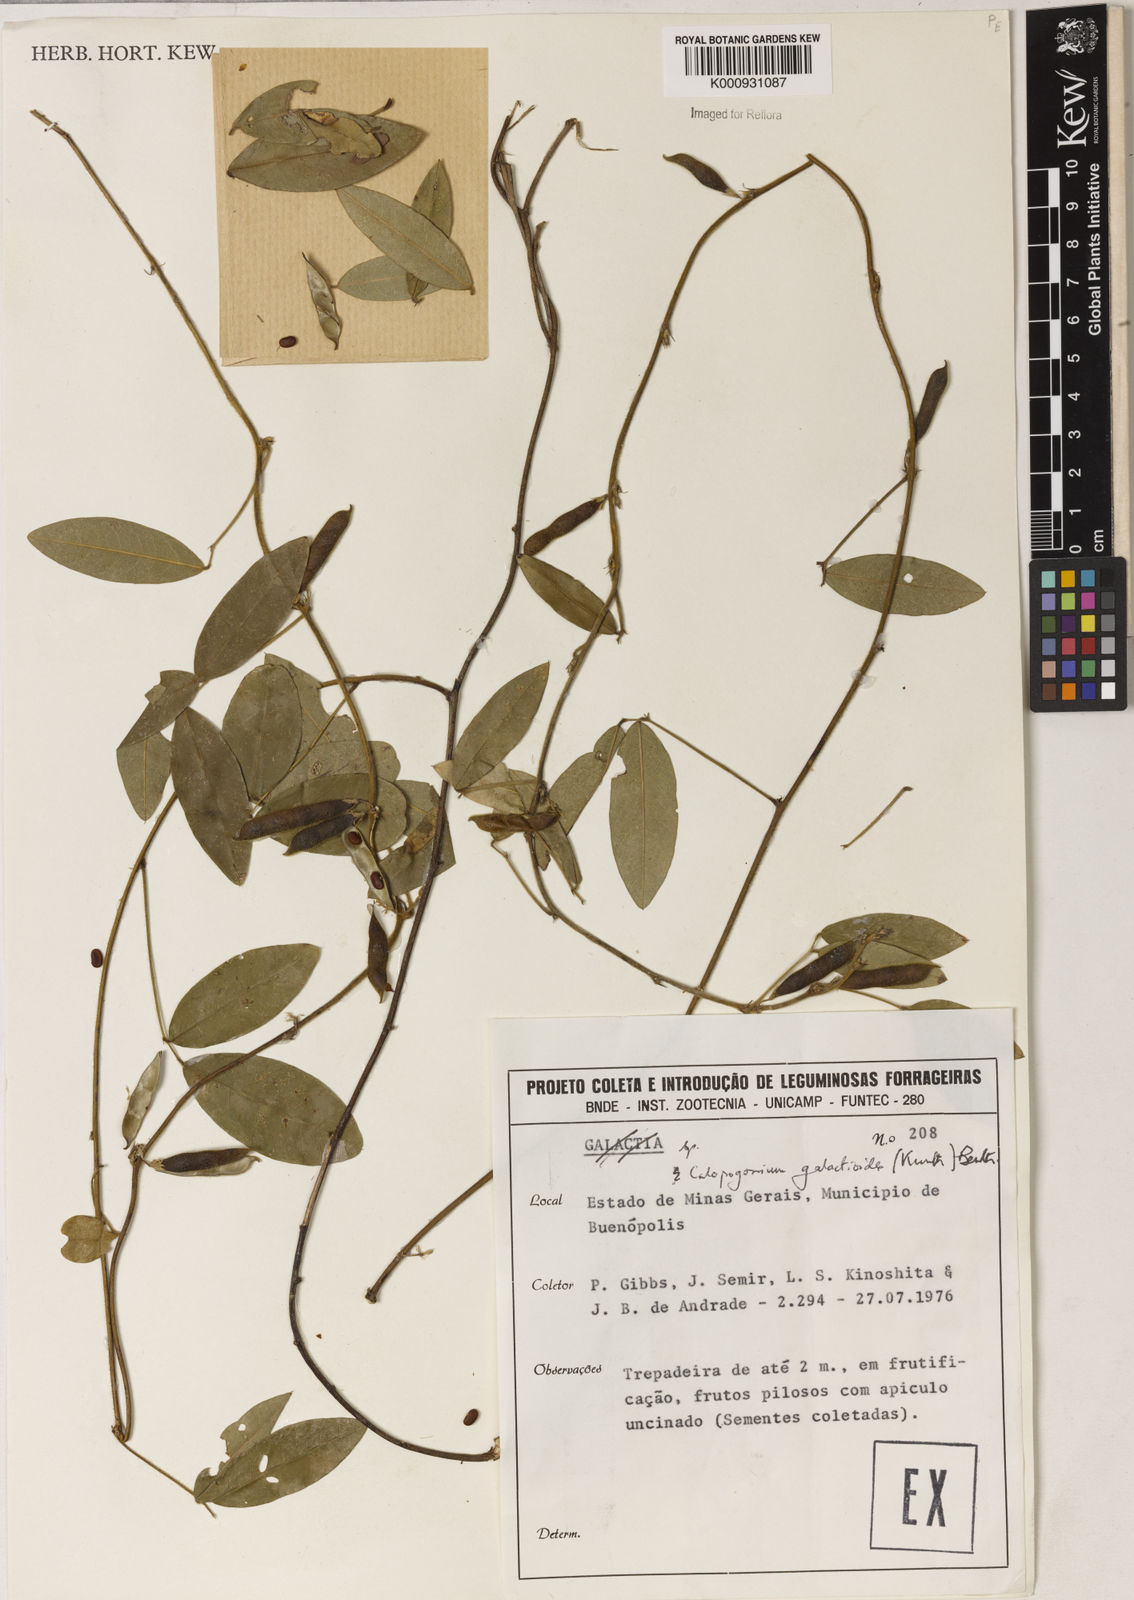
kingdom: Plantae
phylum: Tracheophyta
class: Magnoliopsida
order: Fabales
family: Fabaceae
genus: Calopogonium
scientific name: Calopogonium galactioides
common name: Legume
